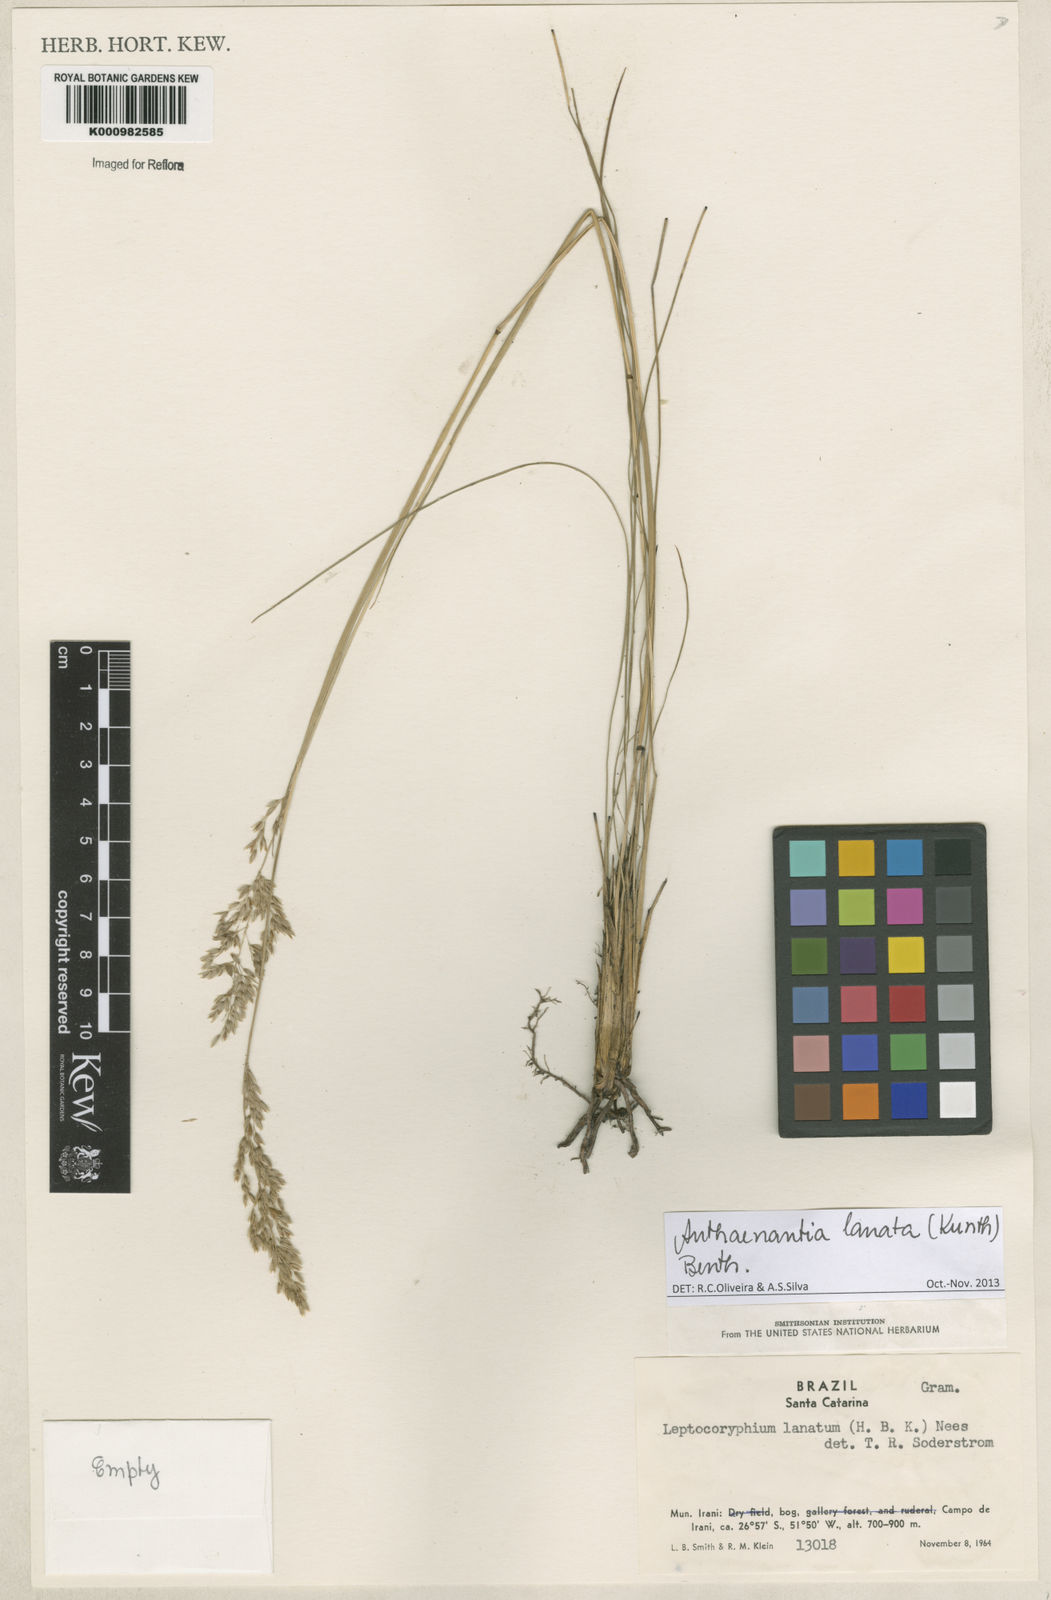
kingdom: Plantae
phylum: Tracheophyta
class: Liliopsida
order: Poales
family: Poaceae
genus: Anthenantia
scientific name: Anthenantia lanata
